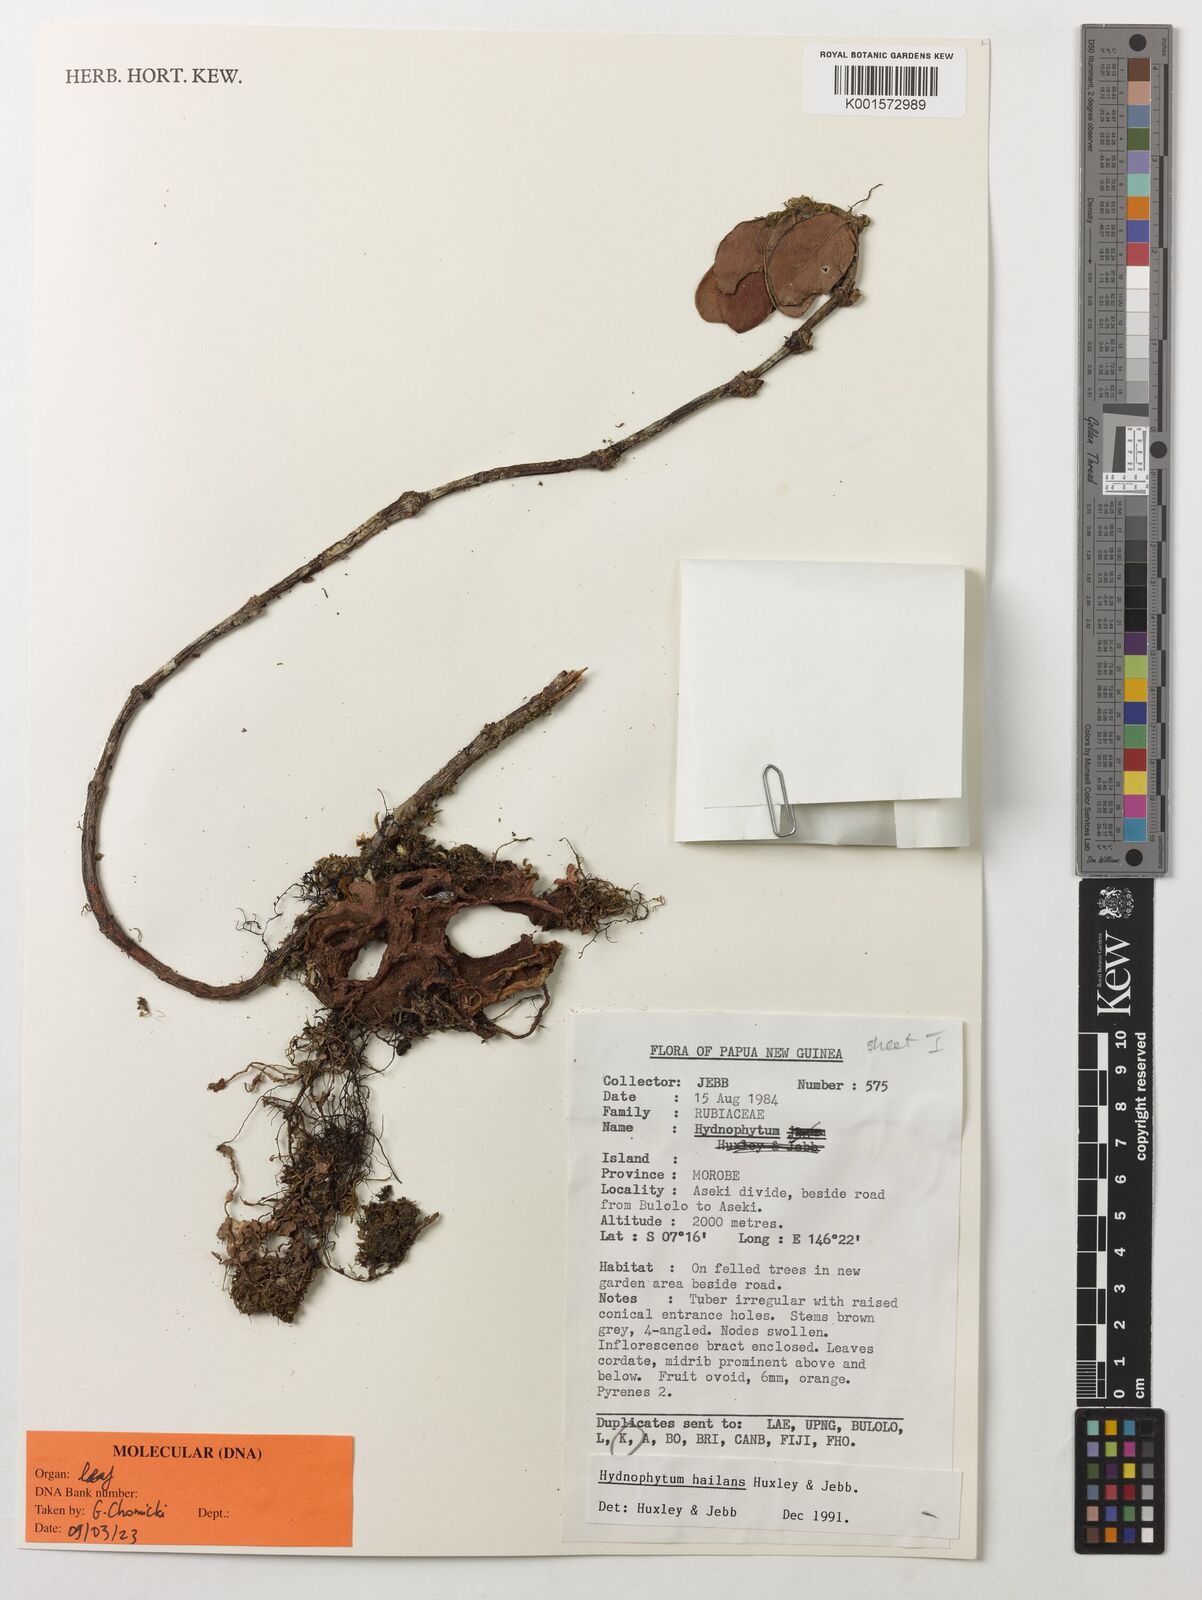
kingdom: Plantae
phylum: Tracheophyta
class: Magnoliopsida
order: Gentianales
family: Rubiaceae
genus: Hydnophytum
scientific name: Hydnophytum hailans
